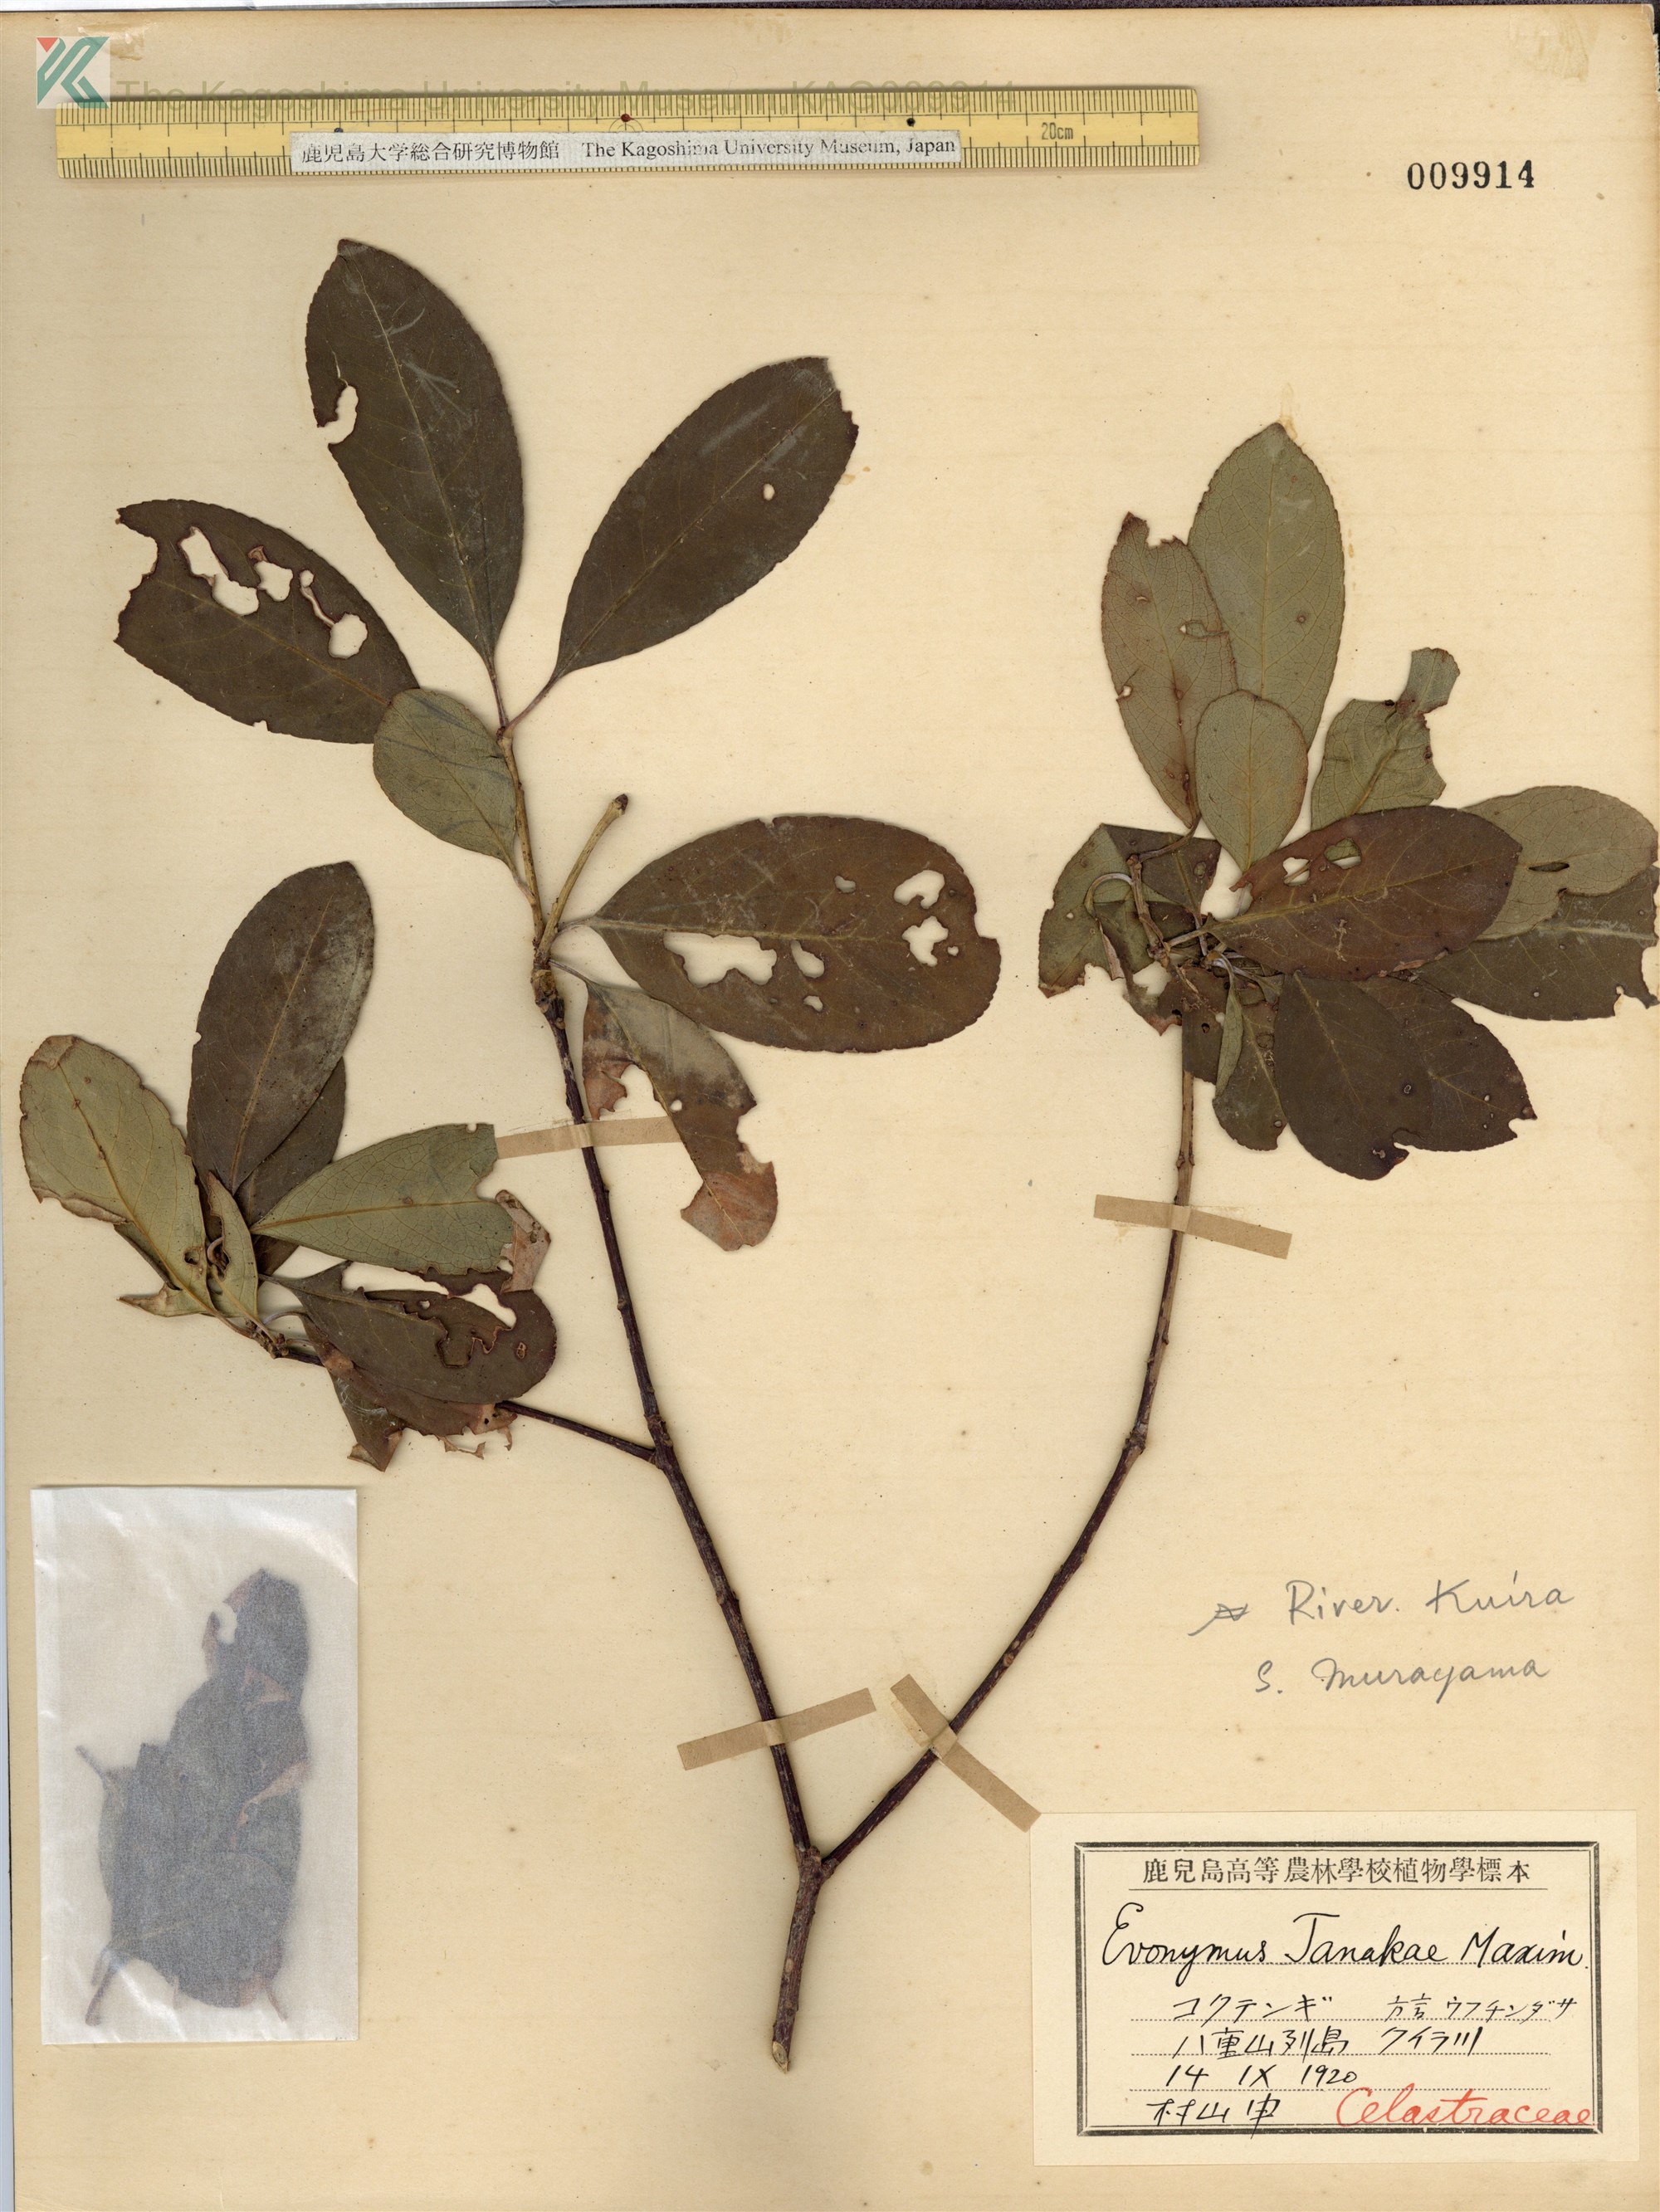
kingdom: Plantae
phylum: Tracheophyta
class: Magnoliopsida
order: Celastrales
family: Celastraceae
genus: Euonymus
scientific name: Euonymus carnosus
